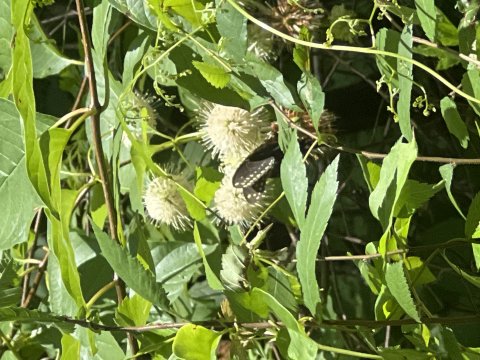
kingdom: Animalia
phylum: Arthropoda
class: Insecta
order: Lepidoptera
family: Papilionidae
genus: Papilio
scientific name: Papilio polyxenes
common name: Black Swallowtail
